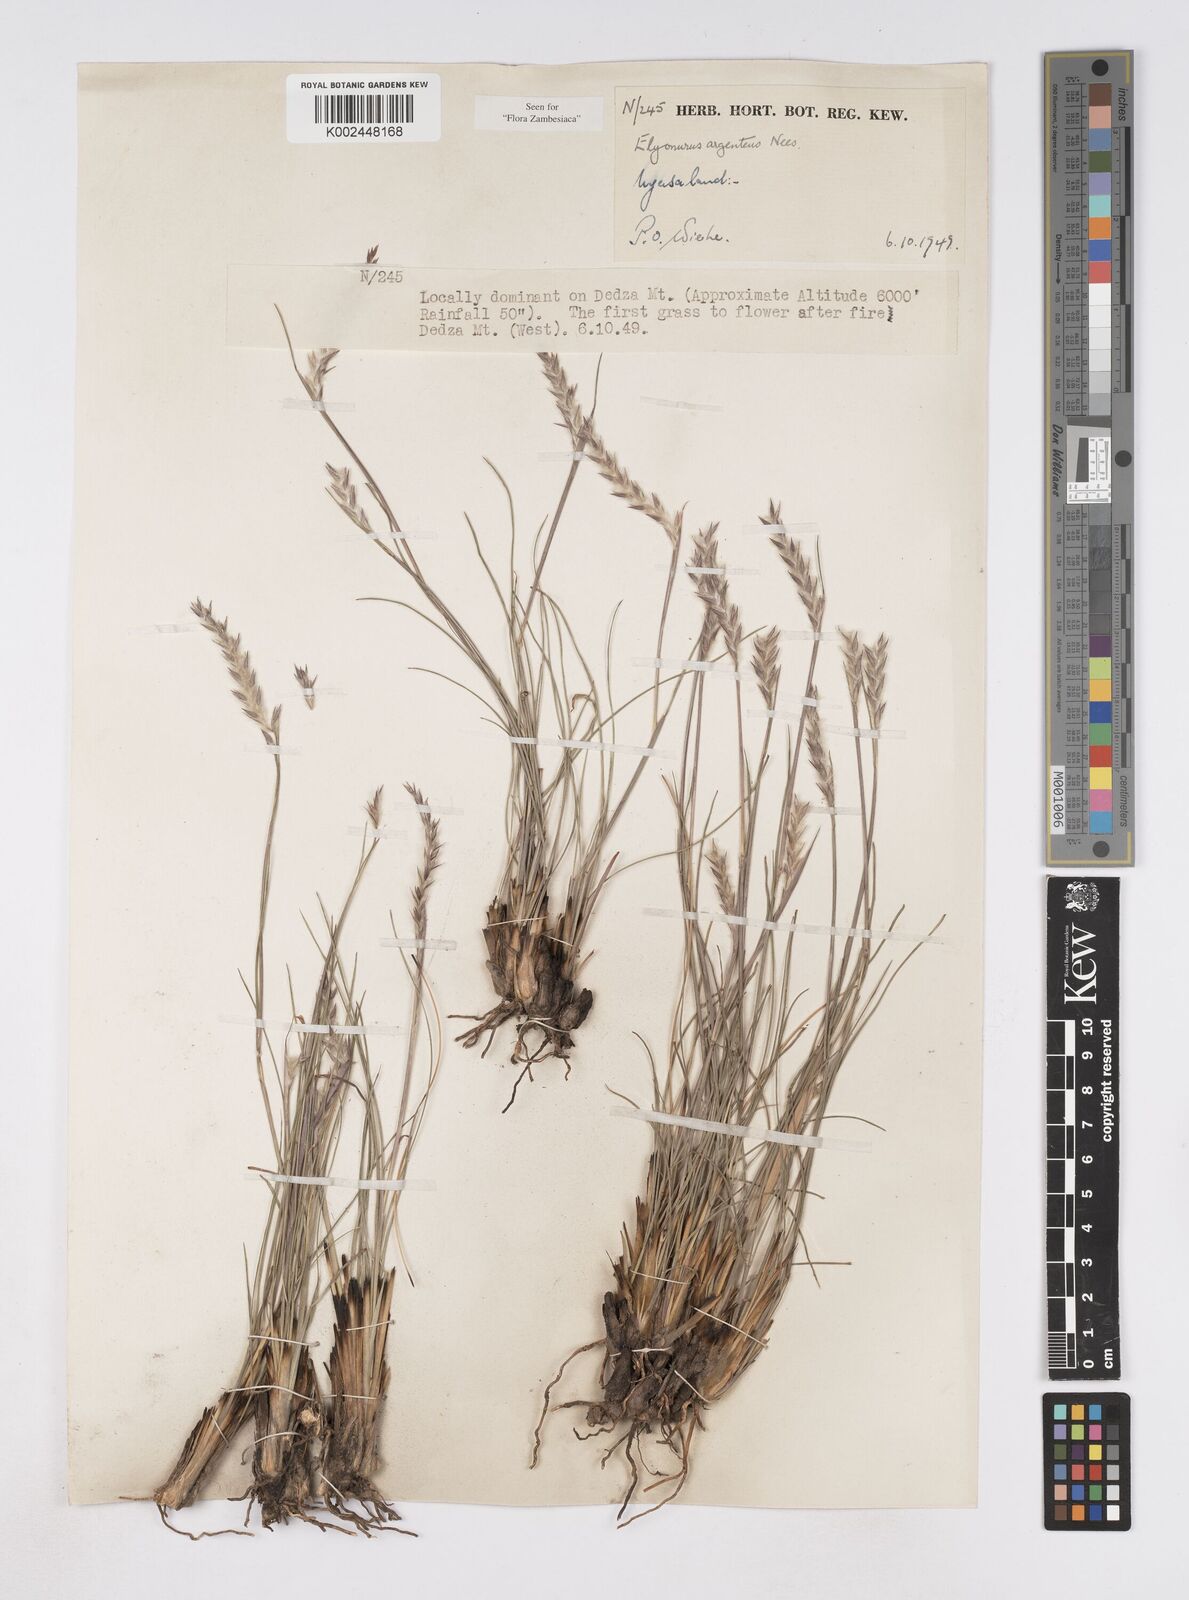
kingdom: Plantae
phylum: Tracheophyta
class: Liliopsida
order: Poales
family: Poaceae
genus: Elionurus
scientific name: Elionurus muticus
